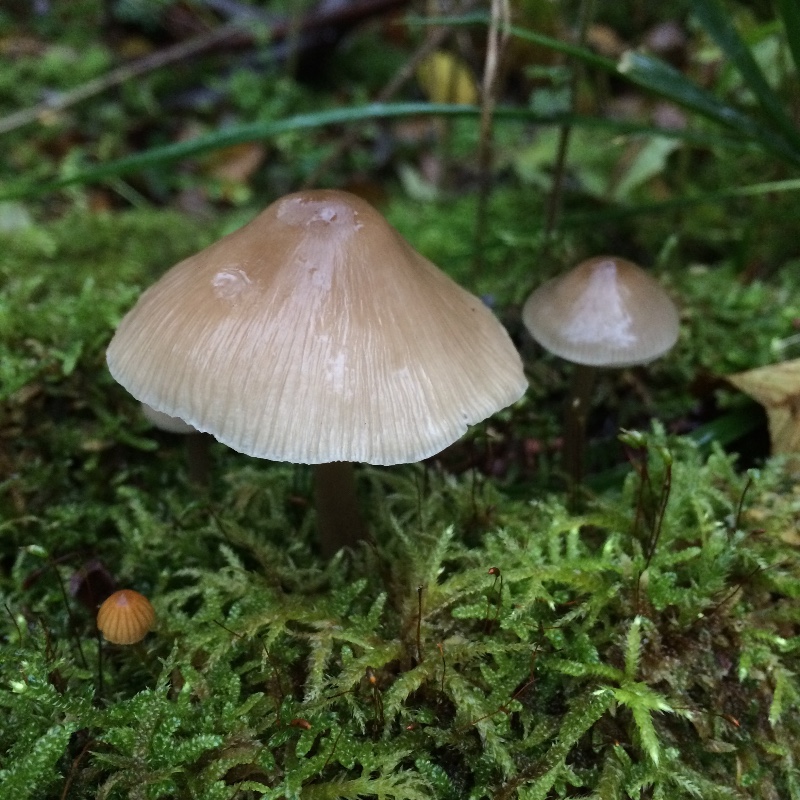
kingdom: Fungi
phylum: Basidiomycota
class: Agaricomycetes
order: Agaricales
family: Mycenaceae
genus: Mycena
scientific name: Mycena galericulata
